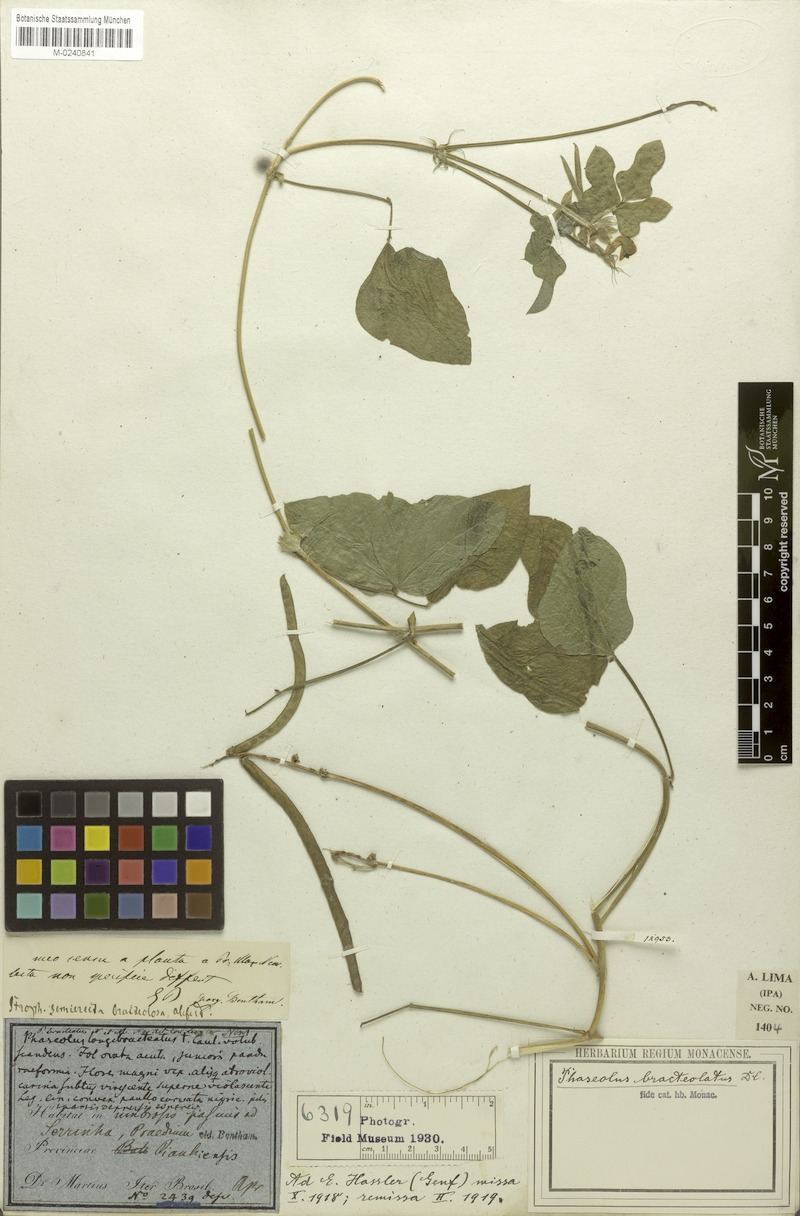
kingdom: Plantae
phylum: Tracheophyta
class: Magnoliopsida
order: Fabales
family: Fabaceae
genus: Macroptilium
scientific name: Macroptilium bracteatum
